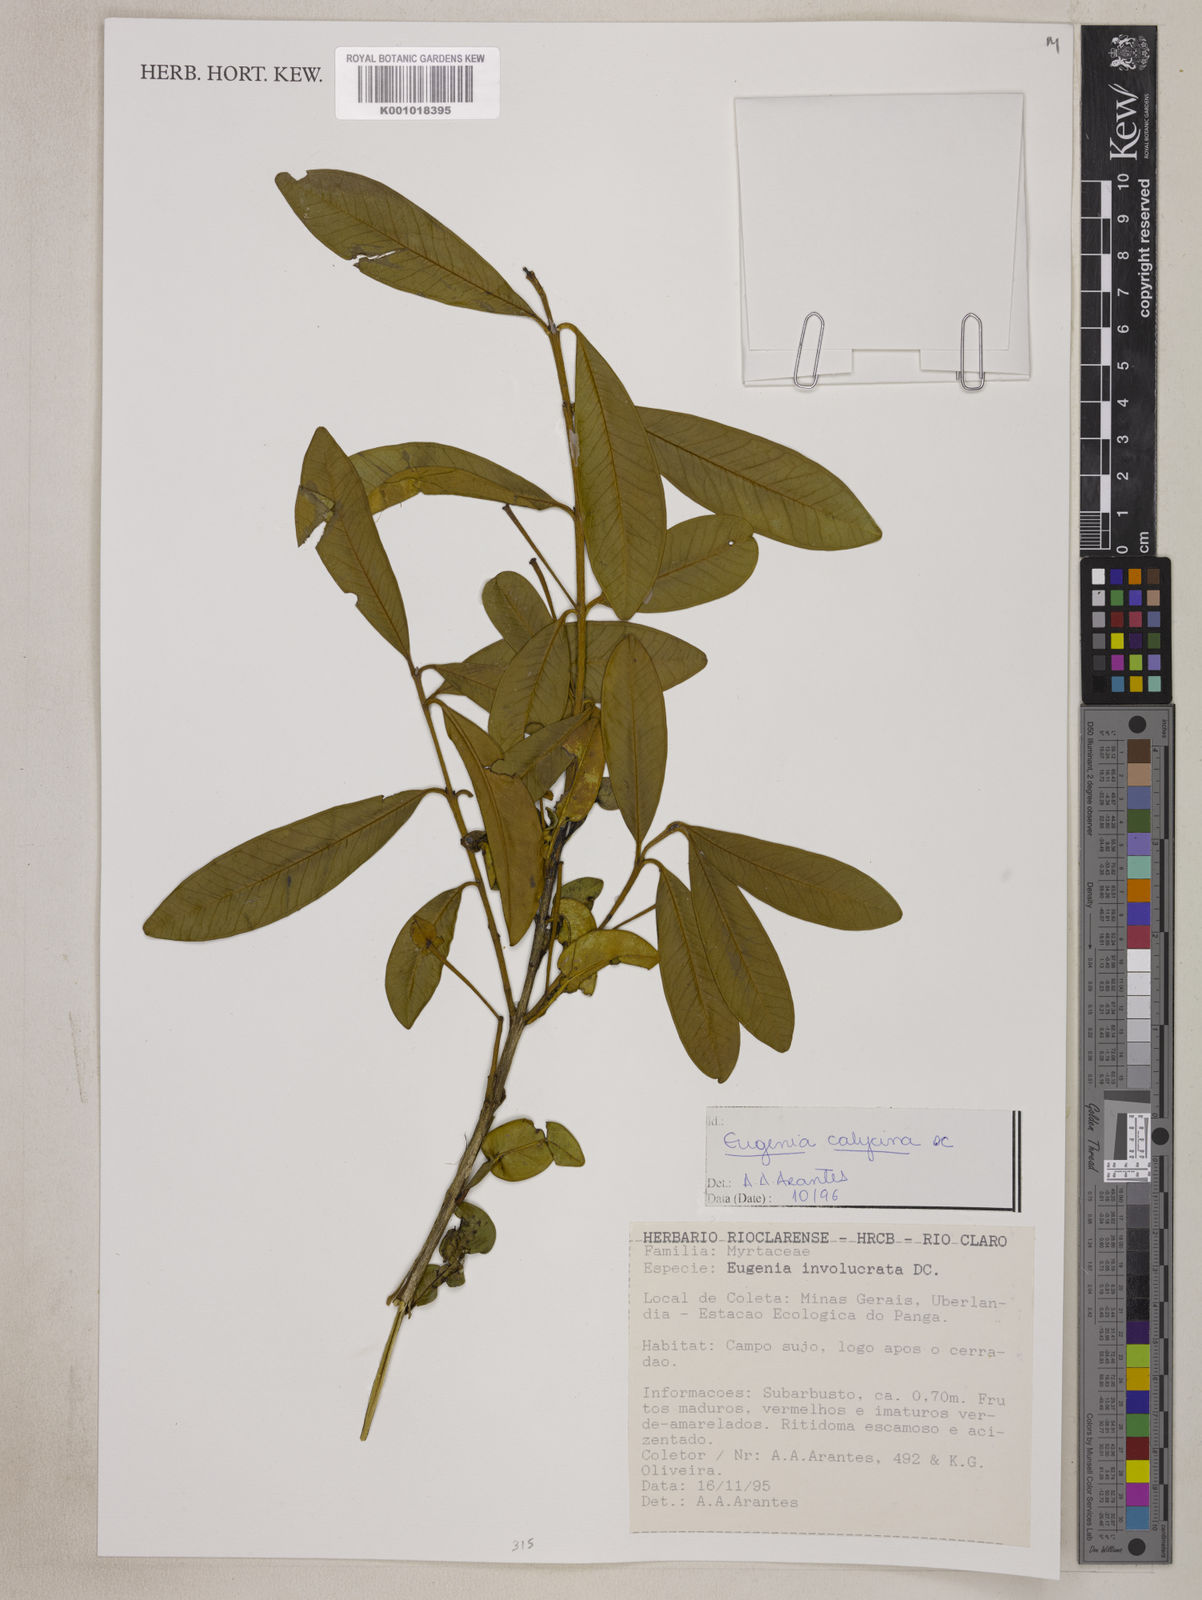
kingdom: Plantae
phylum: Tracheophyta
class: Magnoliopsida
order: Myrtales
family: Myrtaceae
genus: Eugenia
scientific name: Eugenia calycina
